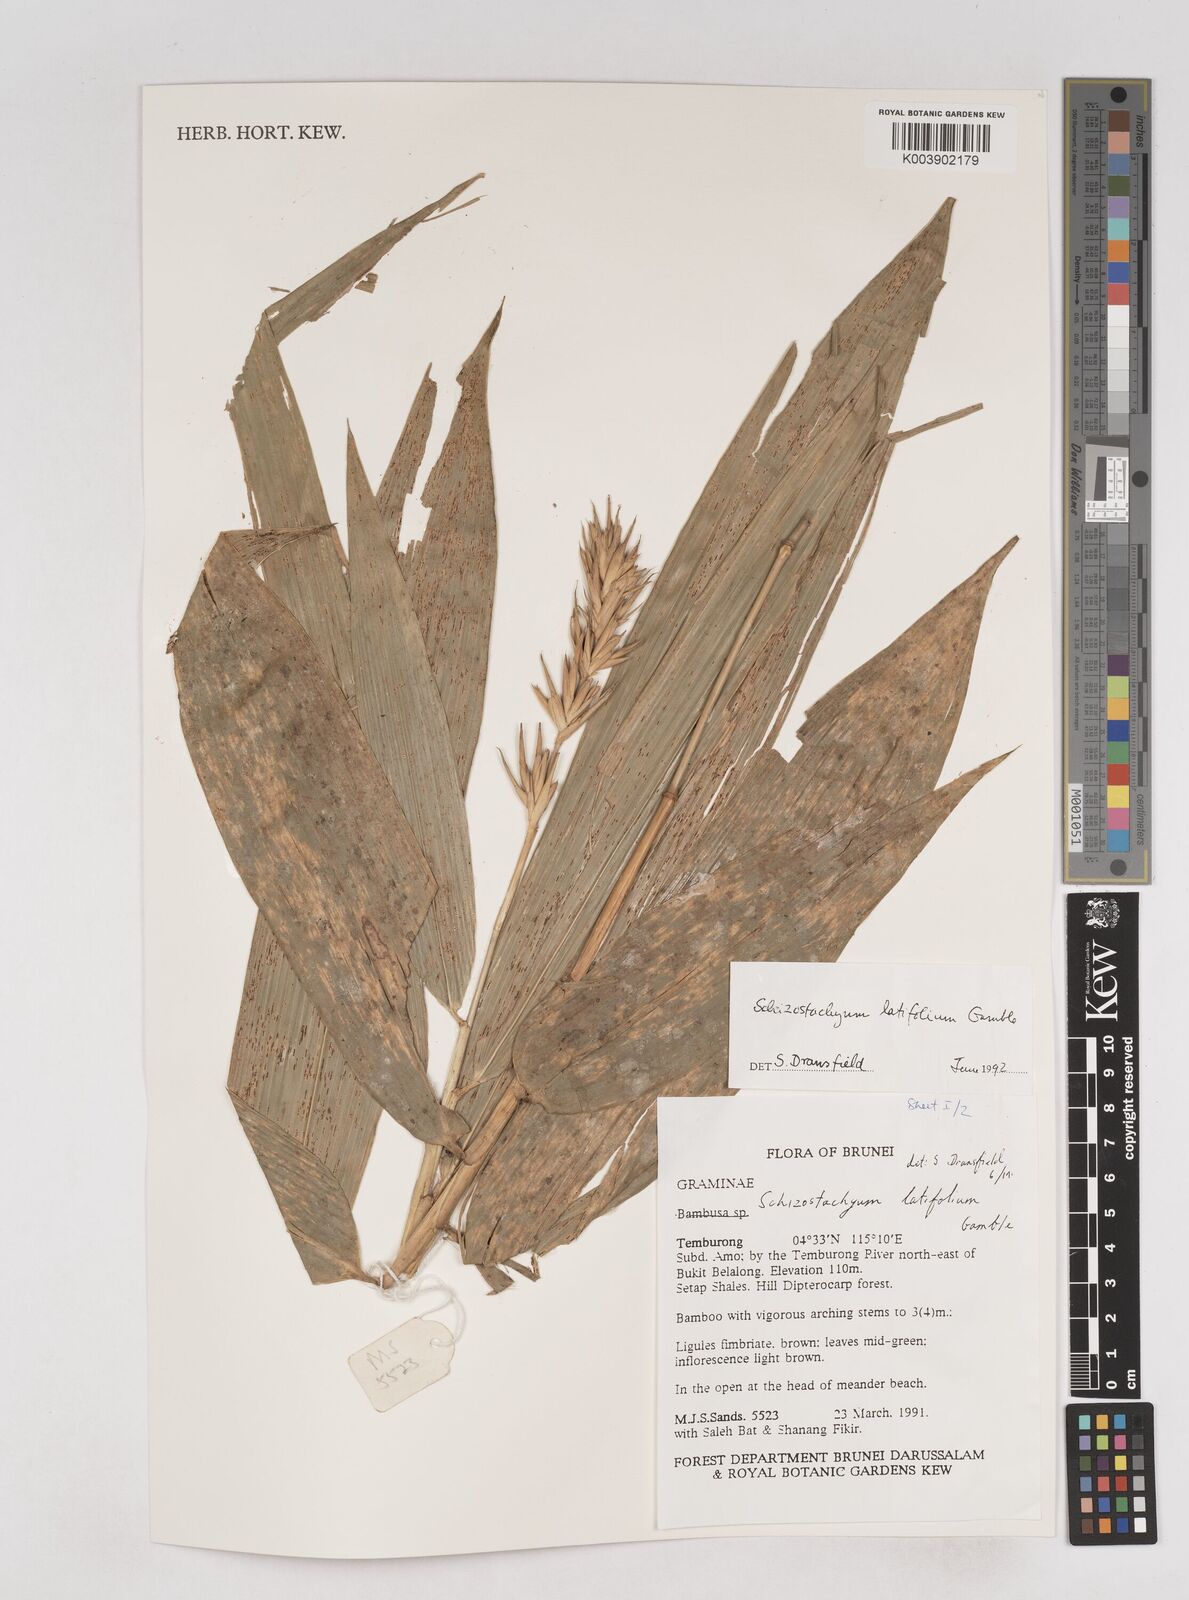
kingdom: Plantae
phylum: Tracheophyta
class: Liliopsida
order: Poales
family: Poaceae
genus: Schizostachyum
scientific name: Schizostachyum
